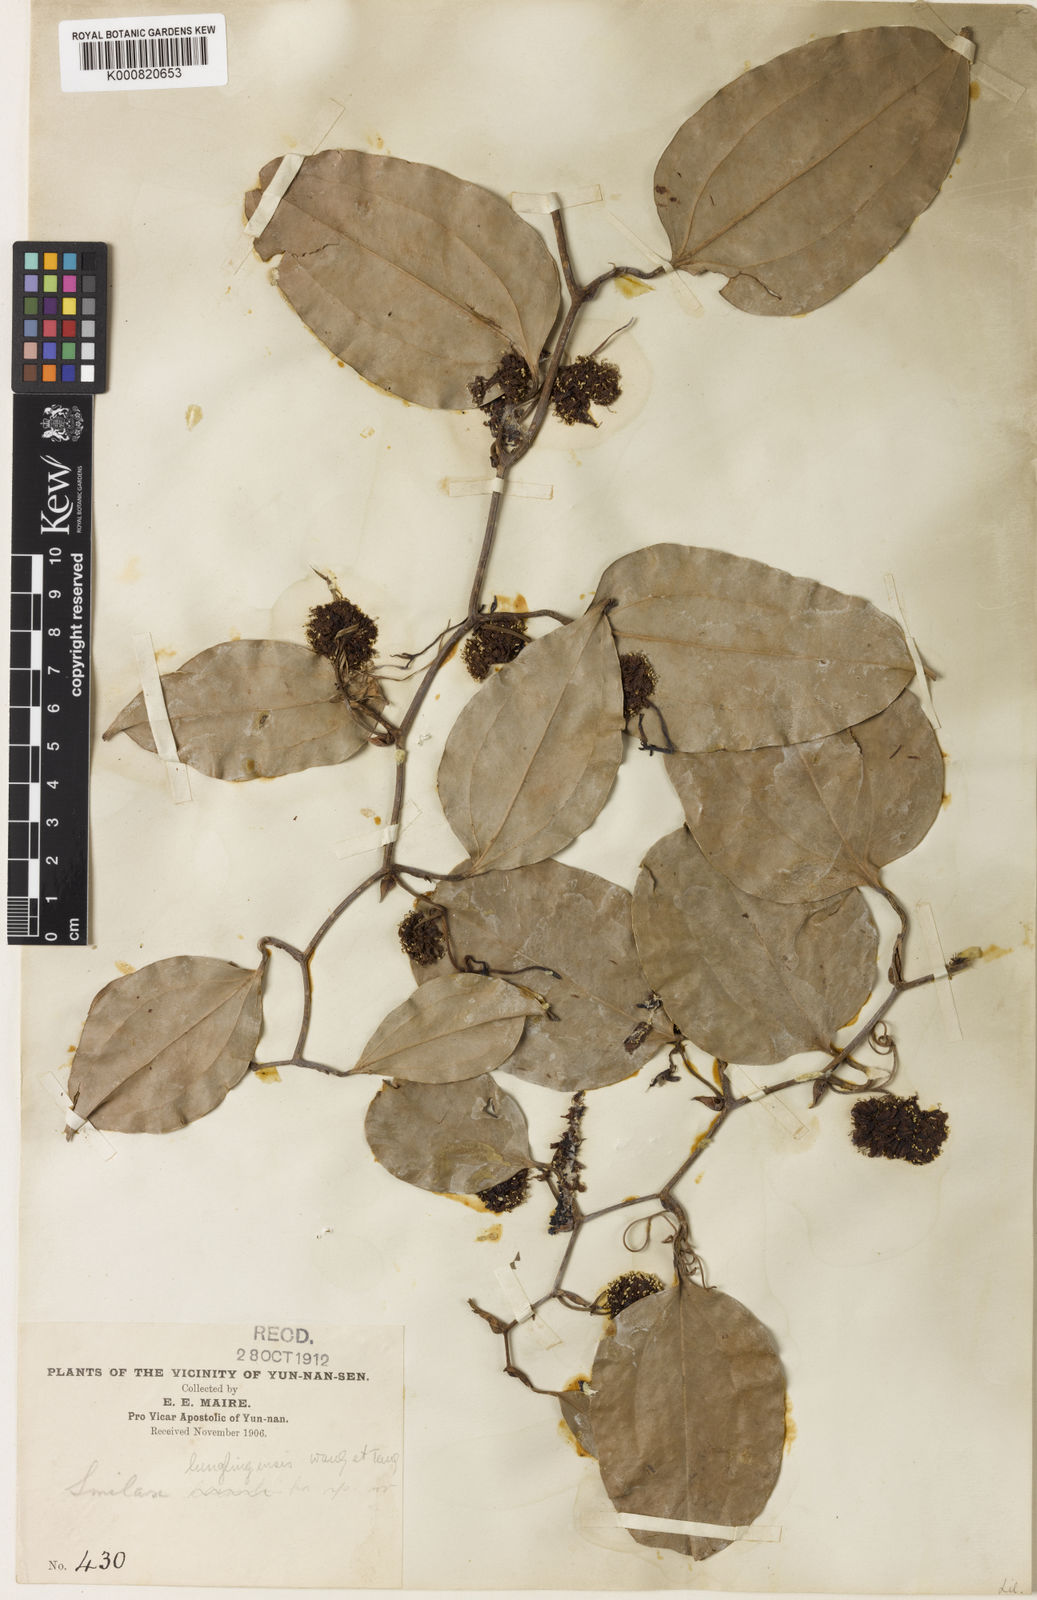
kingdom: Plantae
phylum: Tracheophyta
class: Liliopsida
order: Liliales
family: Smilacaceae
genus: Smilax
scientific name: Smilax lunglingensis
